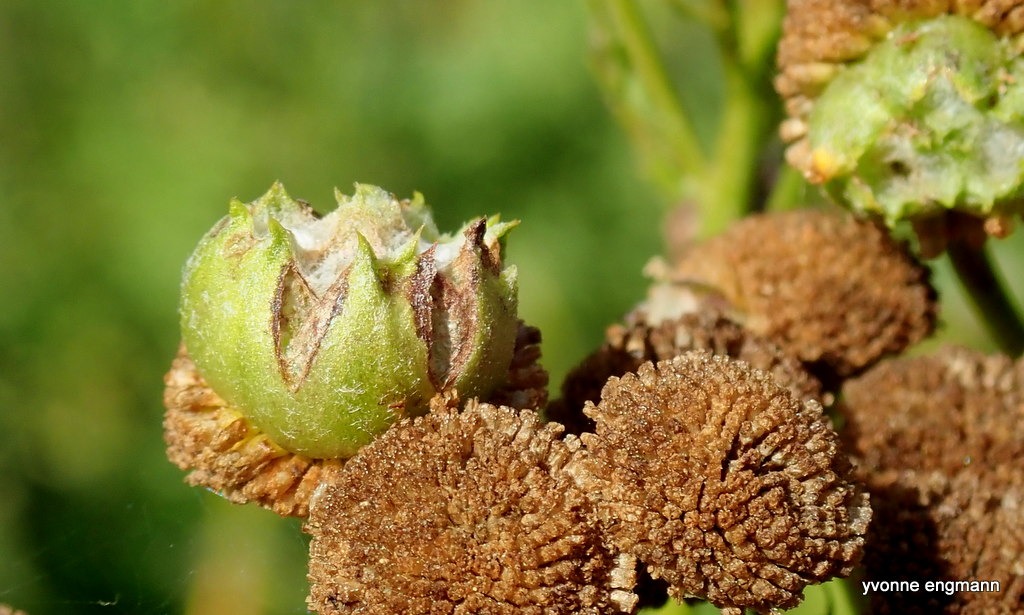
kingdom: Animalia
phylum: Arthropoda
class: Insecta
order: Diptera
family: Cecidomyiidae
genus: Rhopalomyia
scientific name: Rhopalomyia tanaceticolus
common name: Rejnfangalmyg
